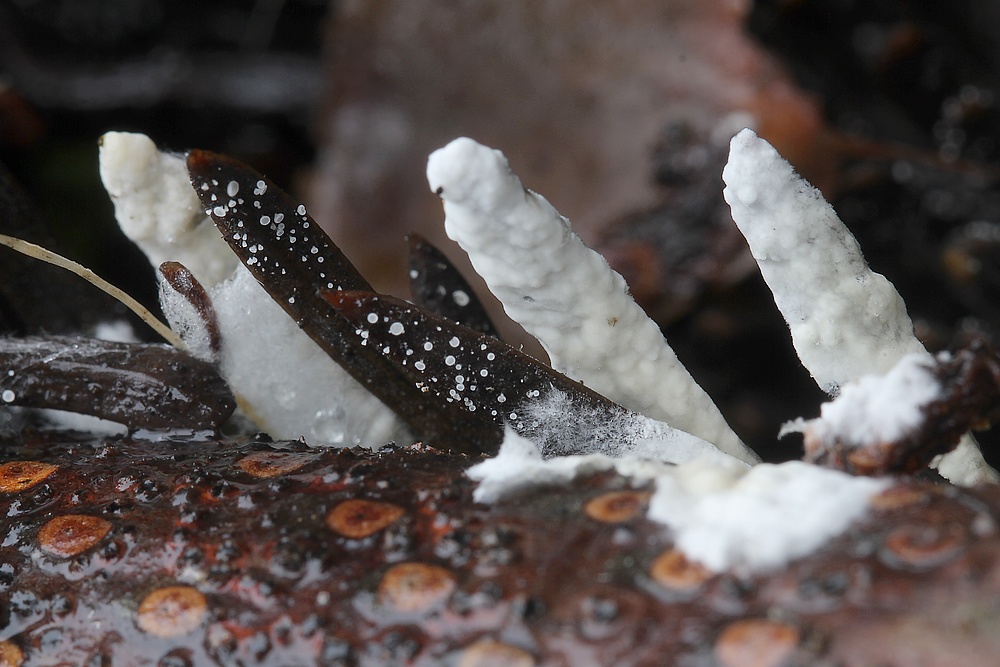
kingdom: Fungi
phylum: Basidiomycota
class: Agaricomycetes
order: Hymenochaetales
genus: Kurtia
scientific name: Kurtia argillacea
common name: Kurts kalkskind
